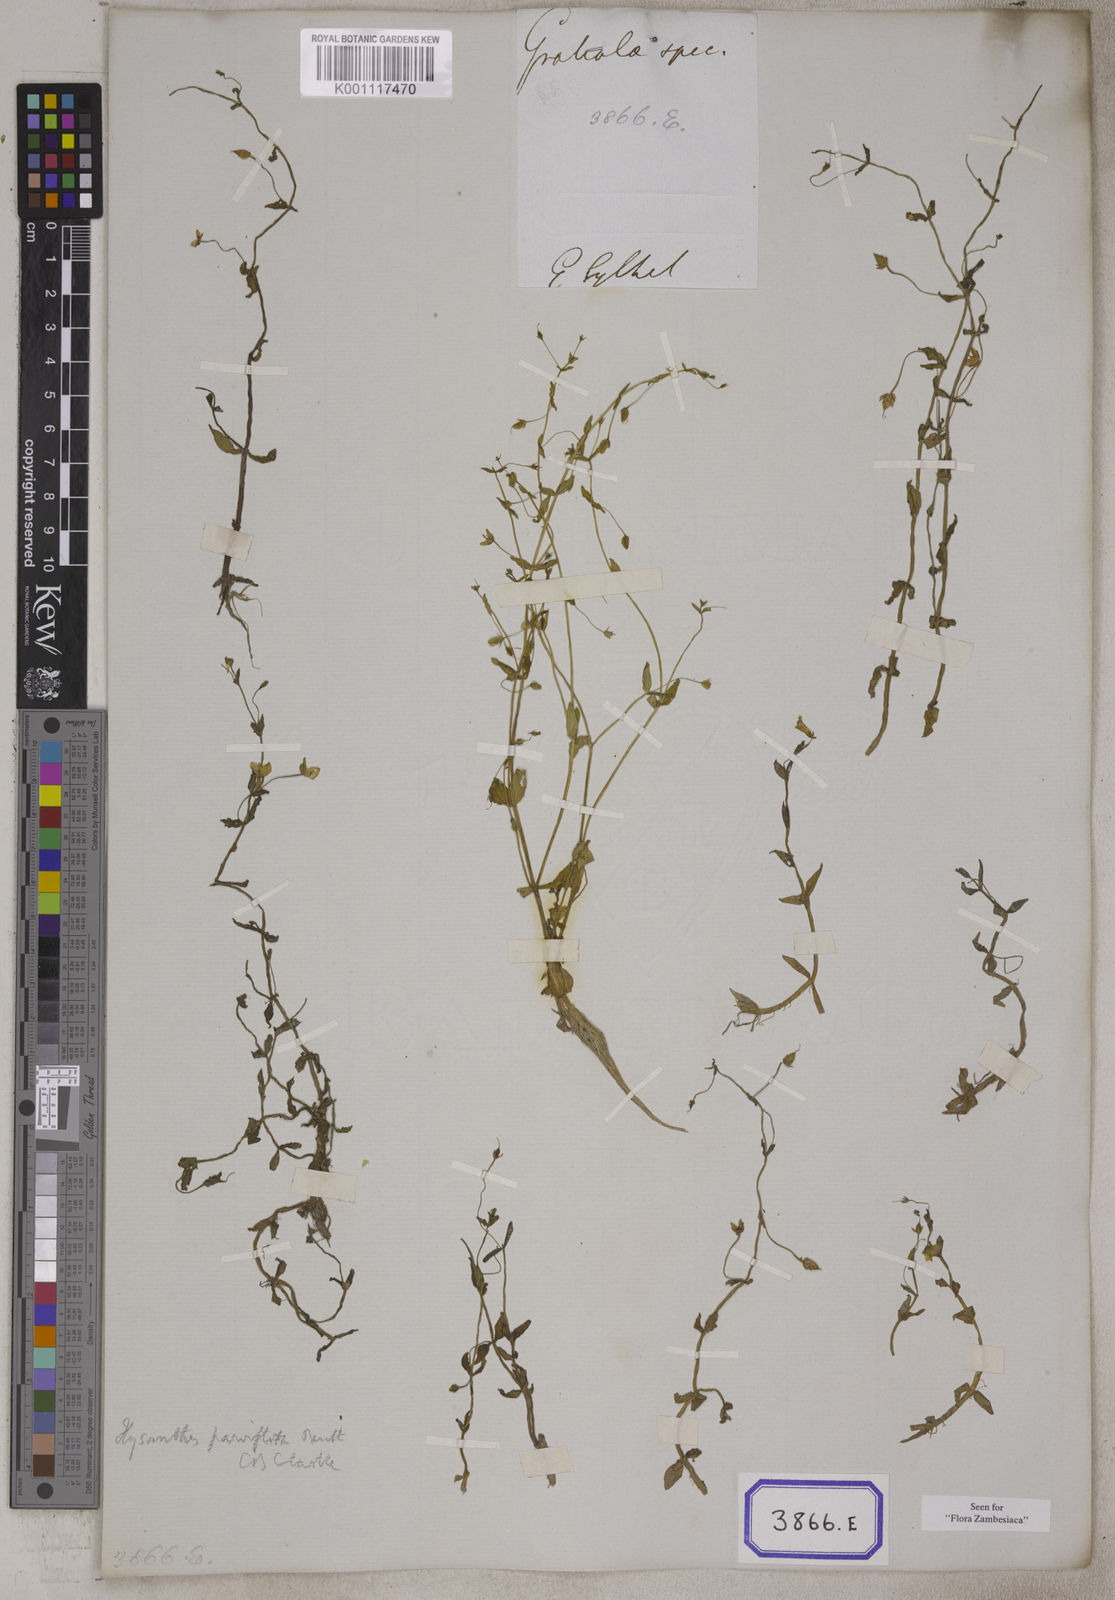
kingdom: Plantae
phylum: Tracheophyta
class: Magnoliopsida
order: Lamiales
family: Linderniaceae
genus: Bonnaya
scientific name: Bonnaya
